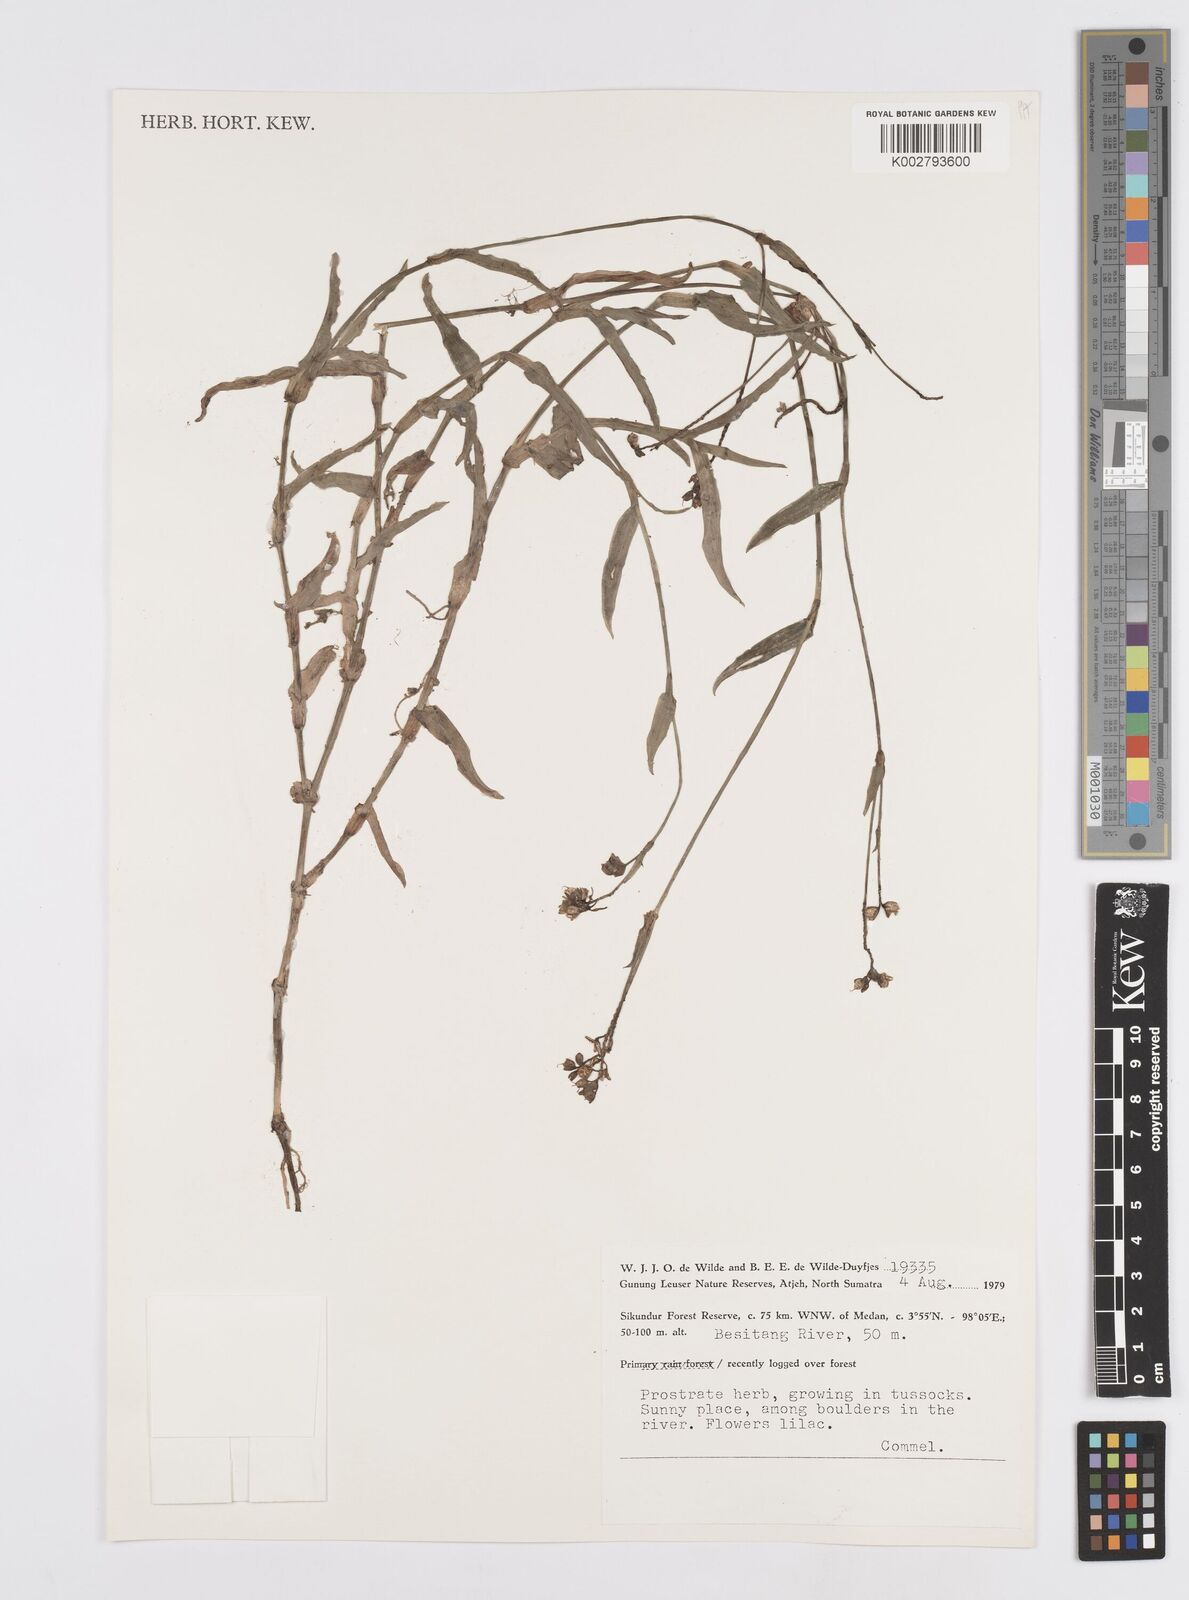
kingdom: Plantae
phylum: Tracheophyta
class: Liliopsida
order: Commelinales
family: Commelinaceae
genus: Murdannia
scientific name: Murdannia nudiflora
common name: Nakedstem dewflower
